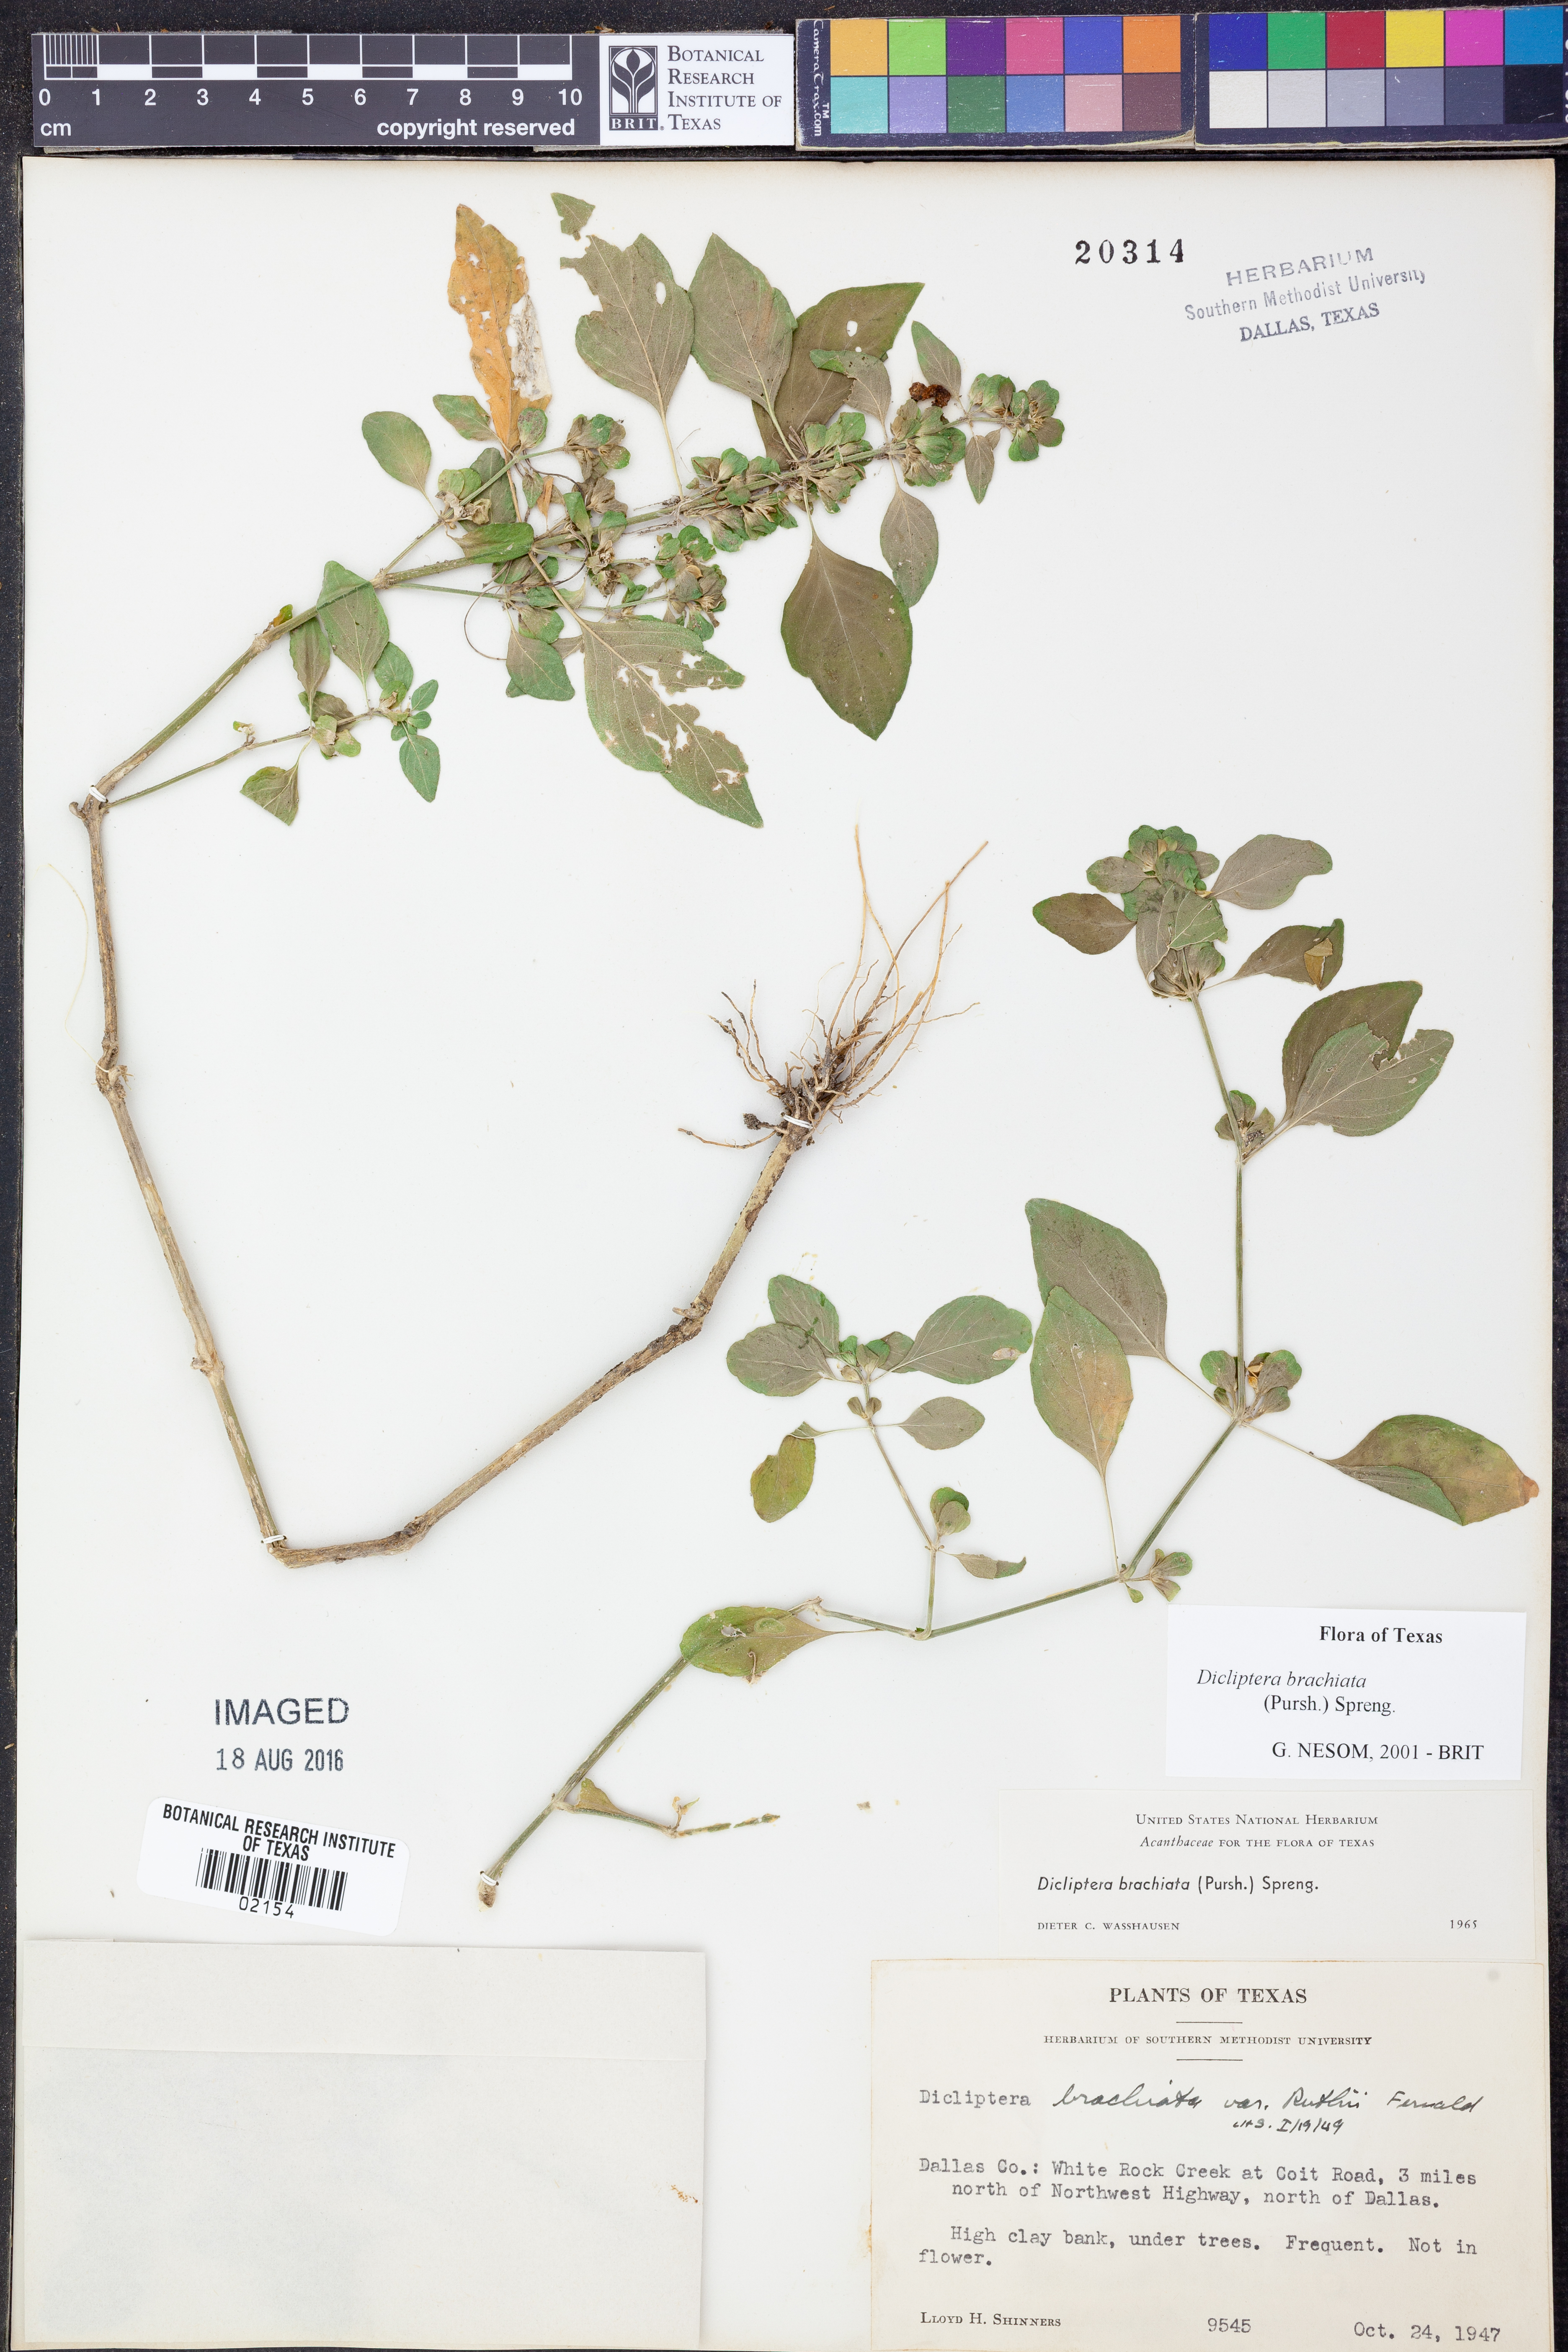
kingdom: Plantae
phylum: Tracheophyta
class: Magnoliopsida
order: Lamiales
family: Acanthaceae
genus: Dicliptera
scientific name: Dicliptera brachiata
